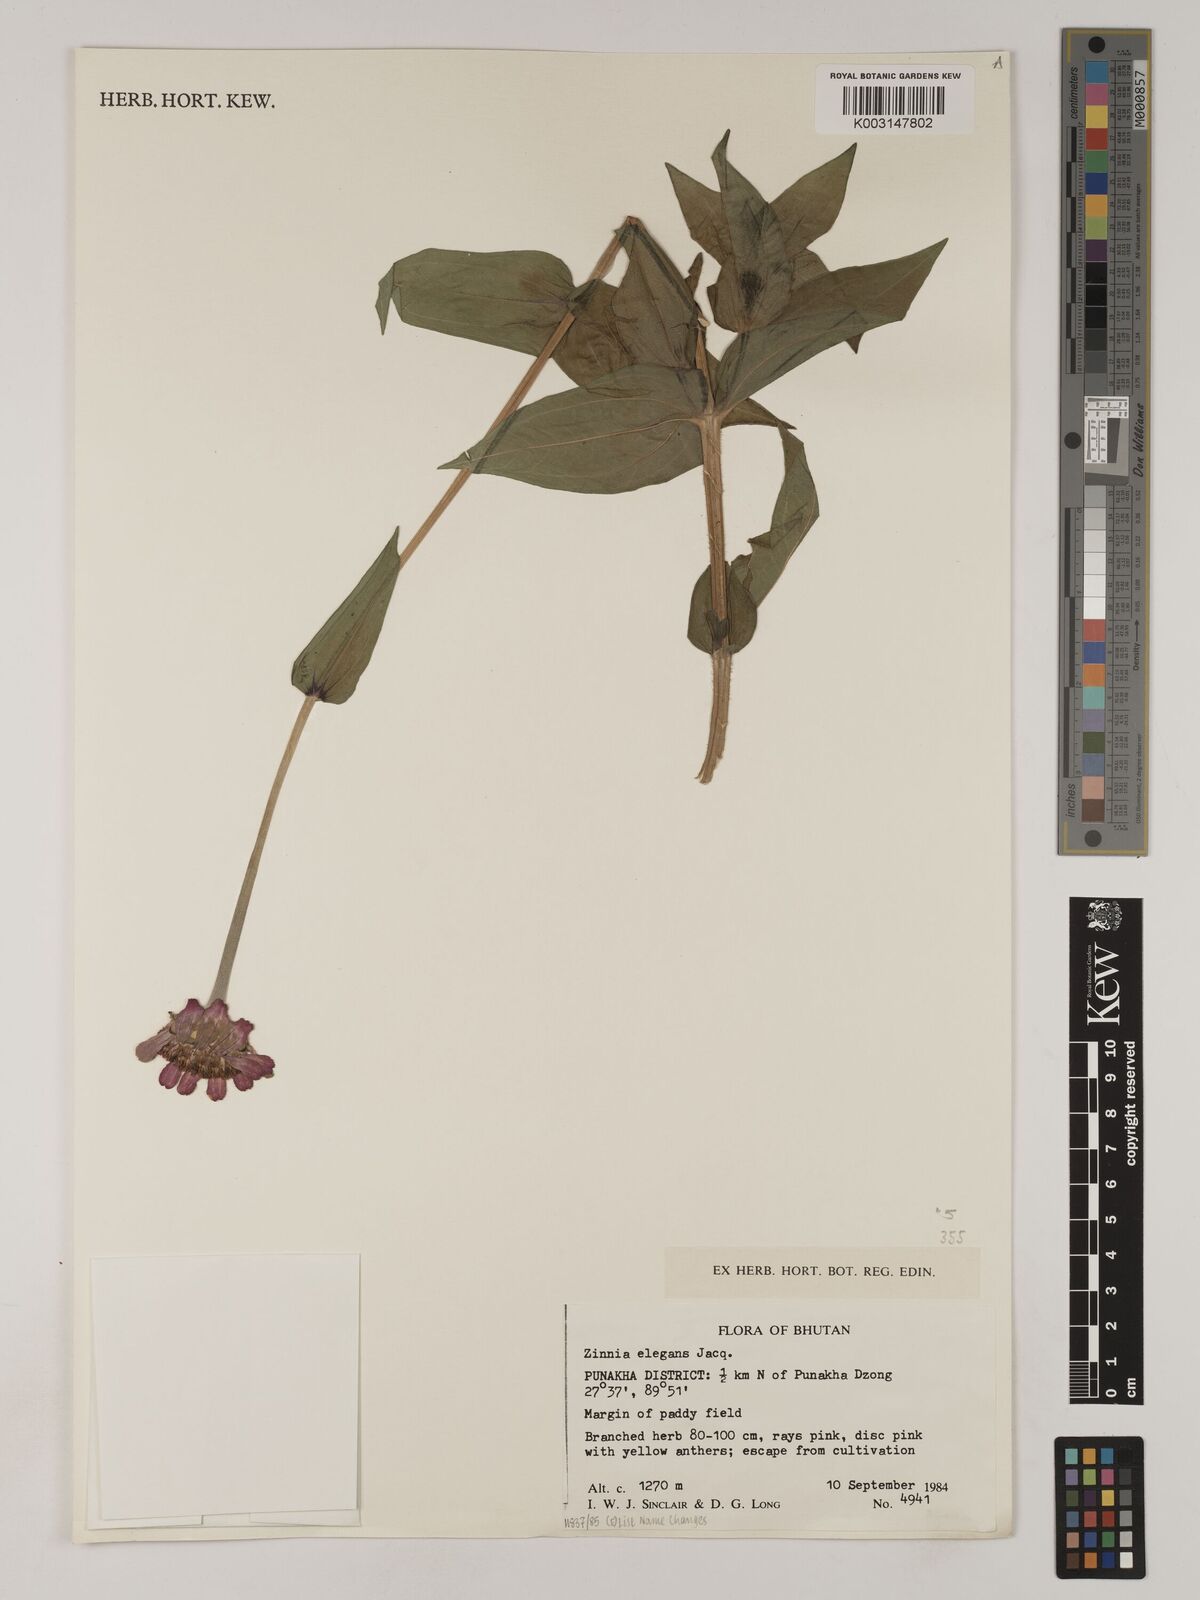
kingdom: Plantae
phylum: Tracheophyta
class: Magnoliopsida
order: Asterales
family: Asteraceae
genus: Zinnia
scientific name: Zinnia elegans
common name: Youth-and-age
